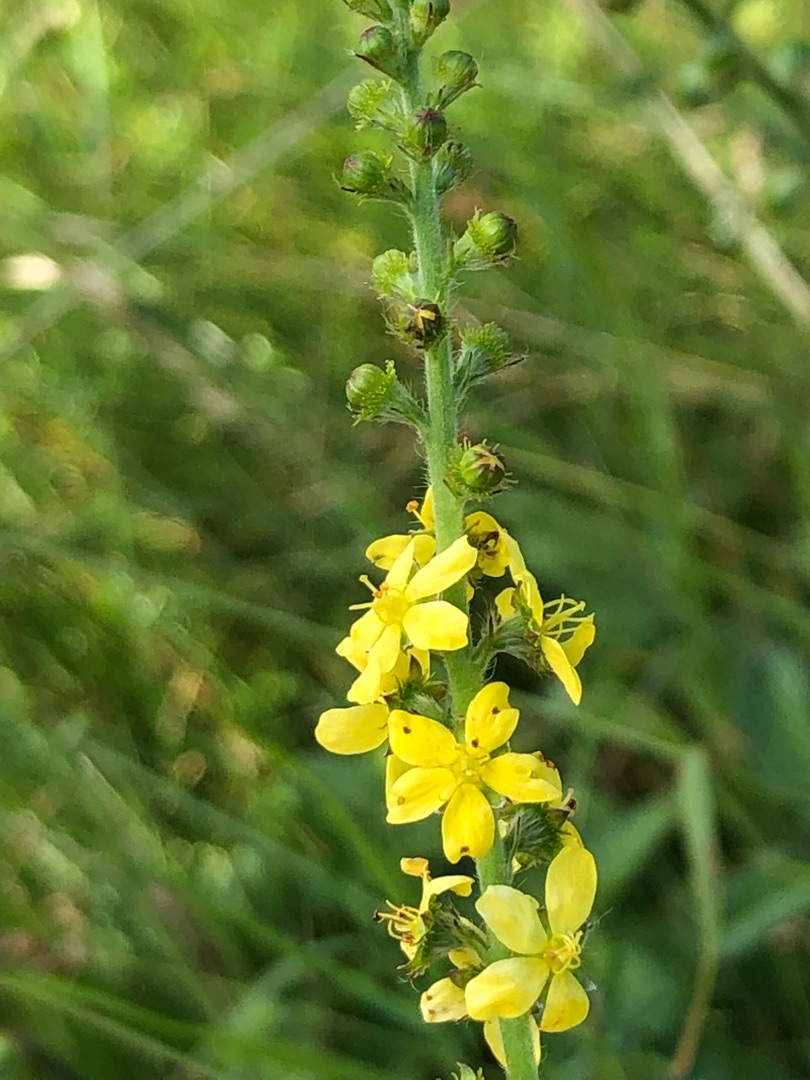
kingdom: Plantae
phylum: Tracheophyta
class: Magnoliopsida
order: Rosales
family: Rosaceae
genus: Agrimonia
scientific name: Agrimonia eupatoria
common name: Almindelig agermåne
